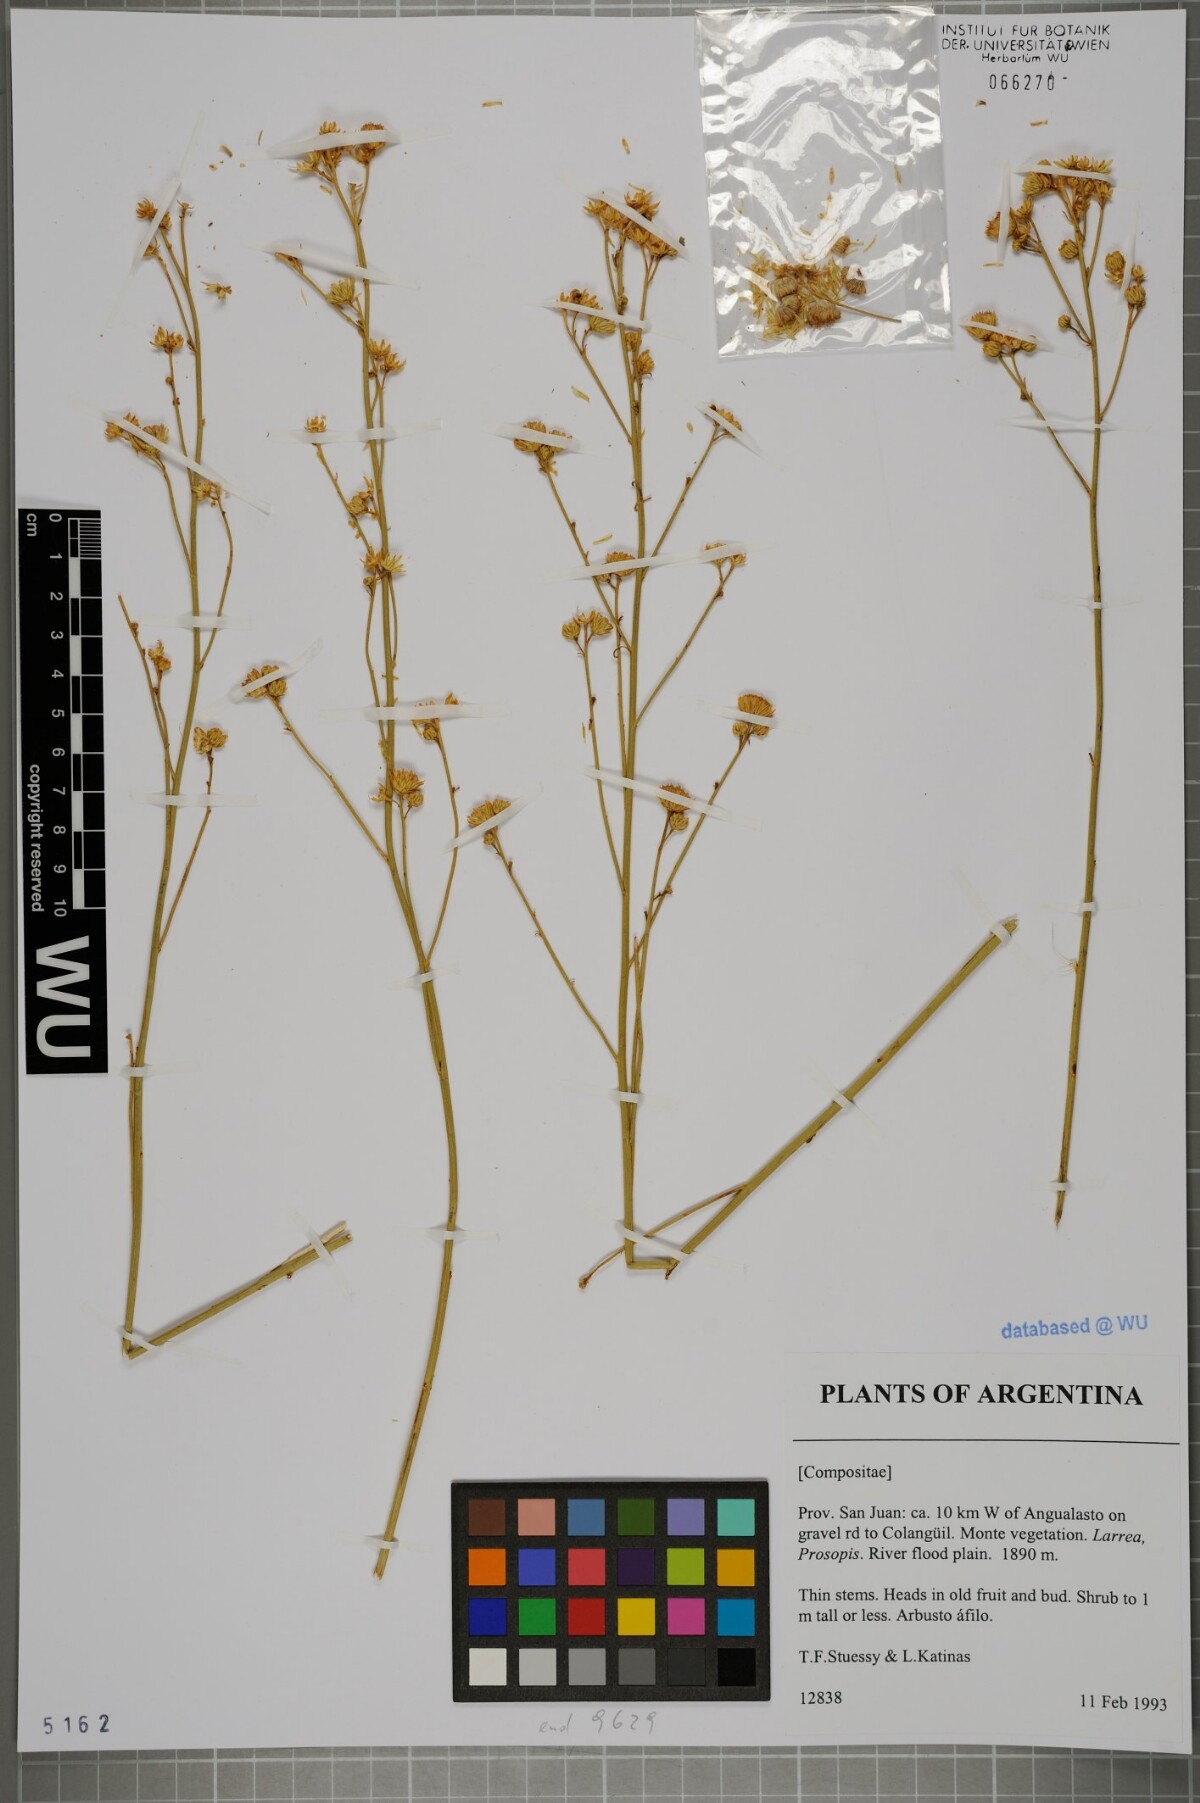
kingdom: Plantae
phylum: Tracheophyta
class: Magnoliopsida
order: Asterales
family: Asteraceae
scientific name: Asteraceae
